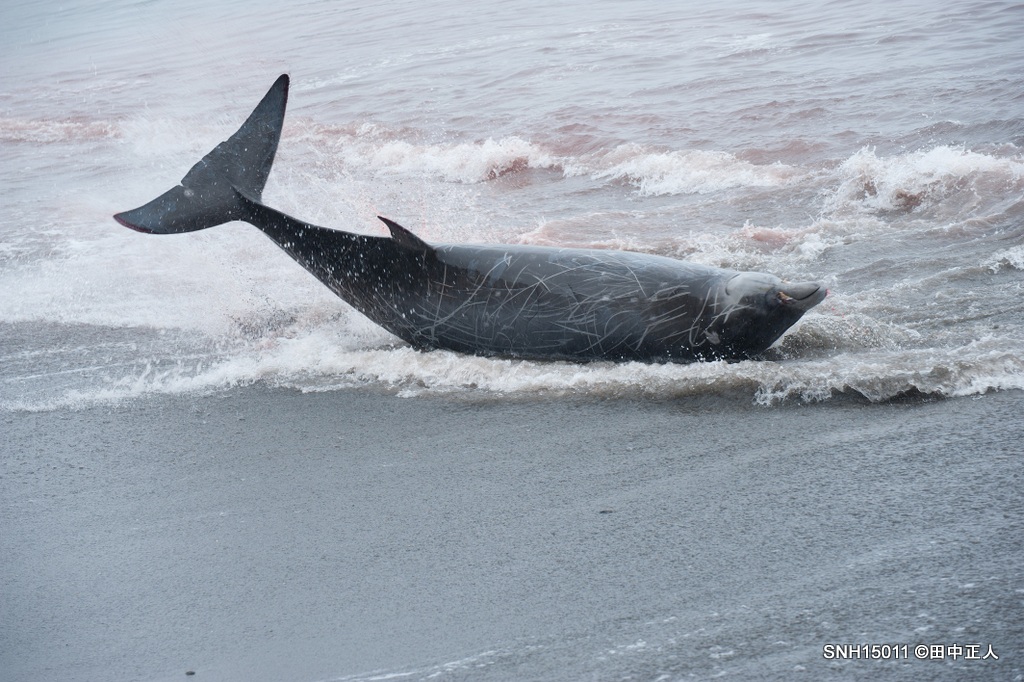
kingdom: Animalia
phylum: Chordata
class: Mammalia
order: Cetacea
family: Hyperoodontidae
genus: Mesoplodon
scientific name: Mesoplodon carlhubbsi
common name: Hubbs' beaked whale
